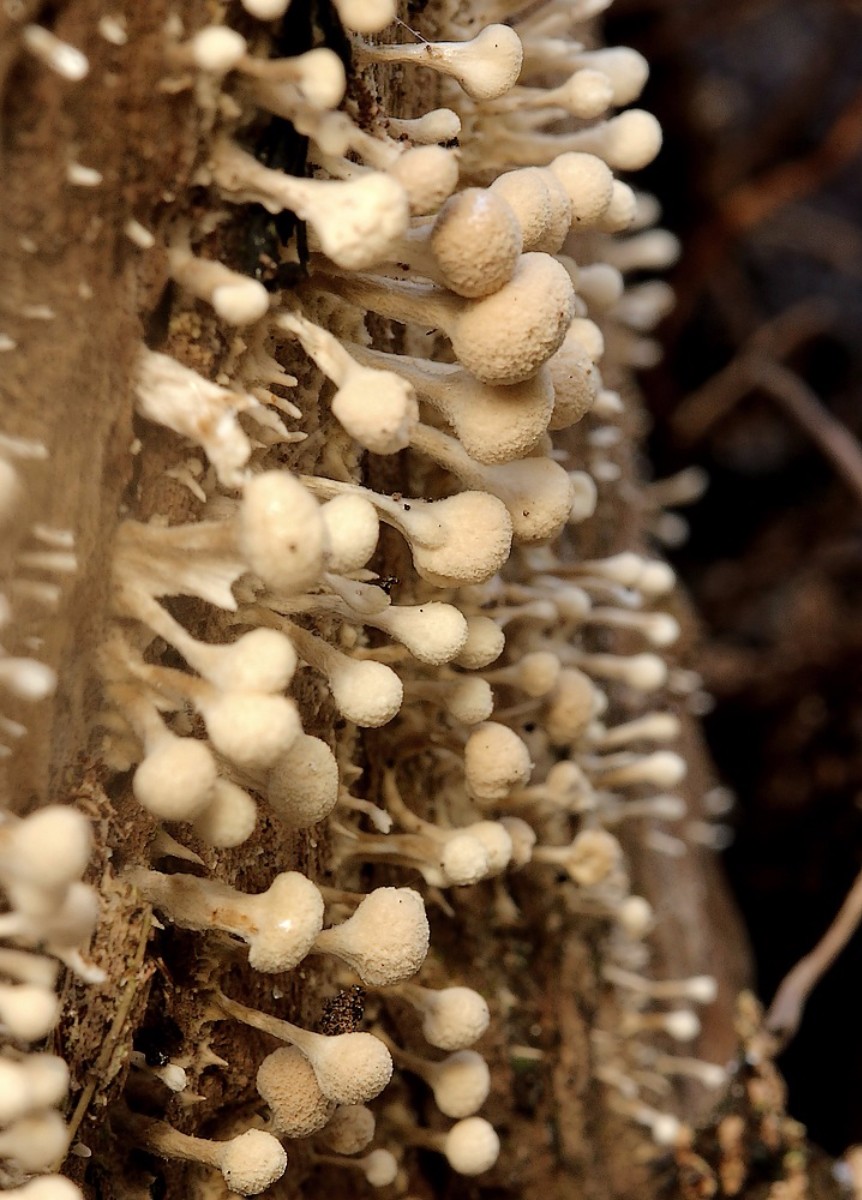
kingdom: Fungi
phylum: Basidiomycota
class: Atractiellomycetes
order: Atractiellales
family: Phleogenaceae
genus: Phleogena
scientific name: Phleogena faginea
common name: pudderkølle
